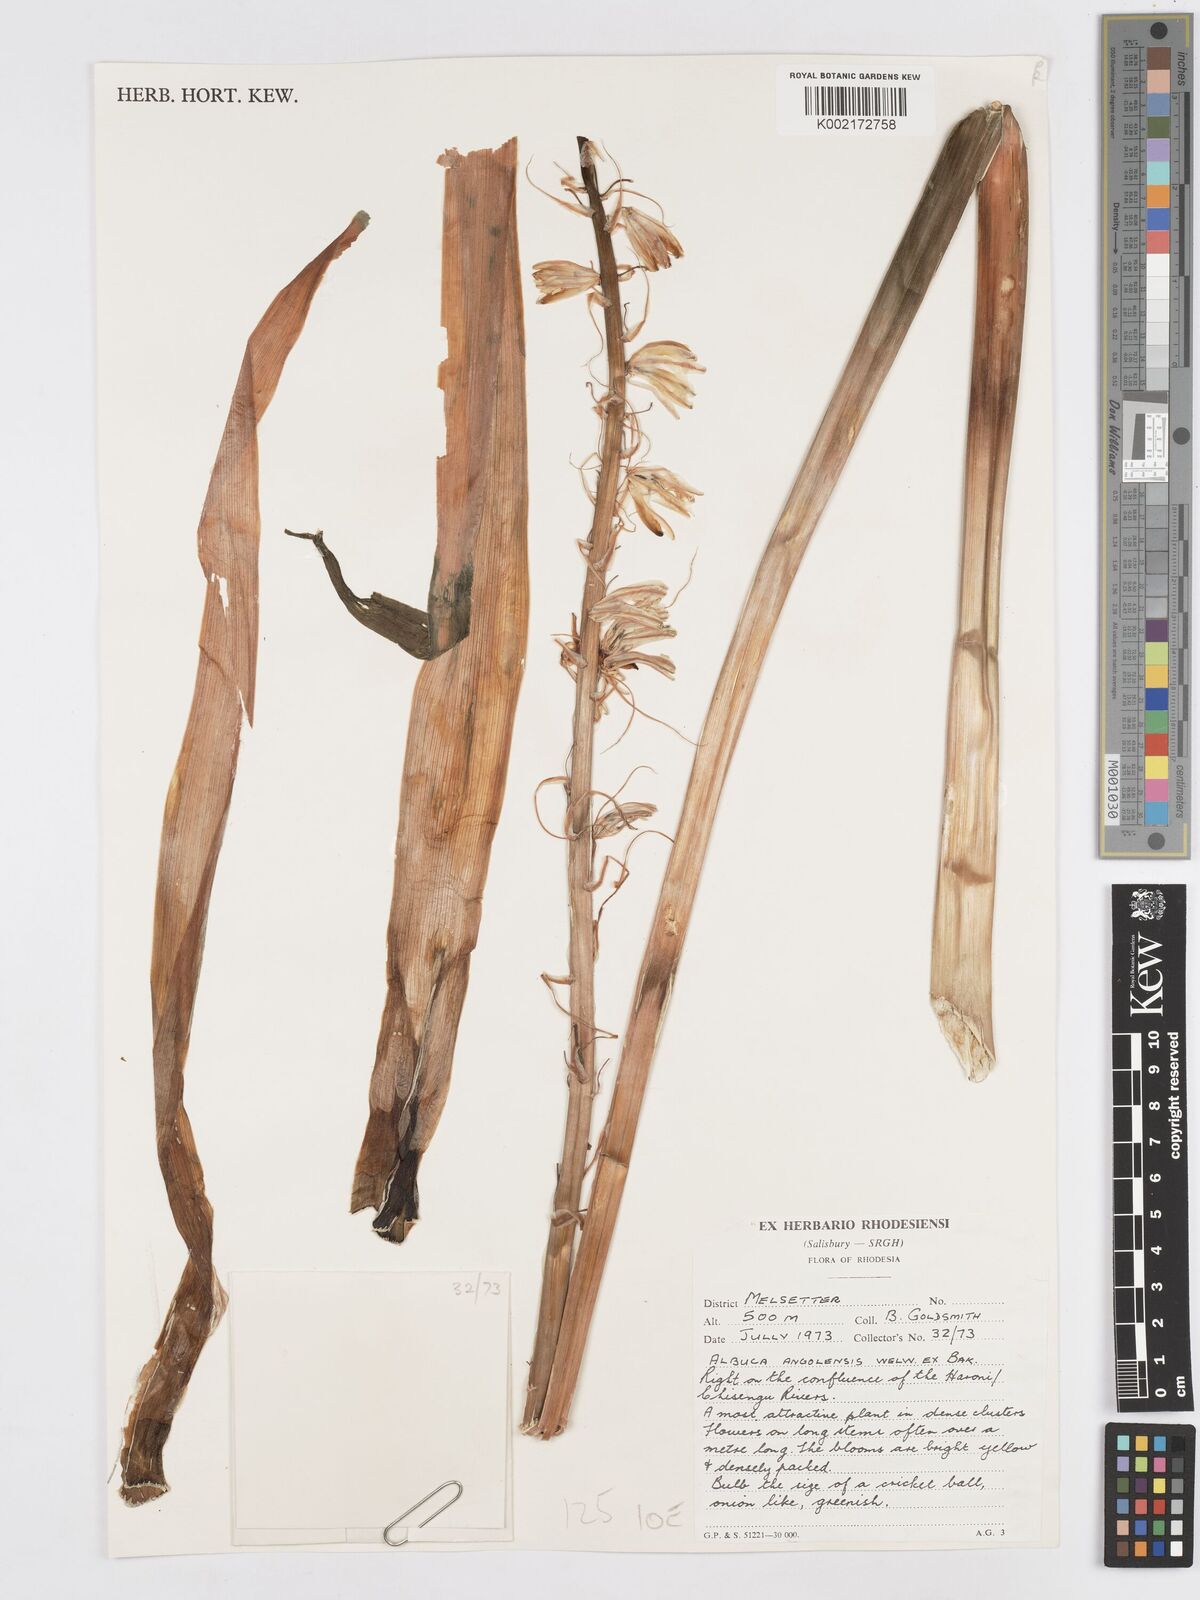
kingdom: Plantae
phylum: Tracheophyta
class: Liliopsida
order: Asparagales
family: Asparagaceae
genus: Albuca
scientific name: Albuca abyssinica
